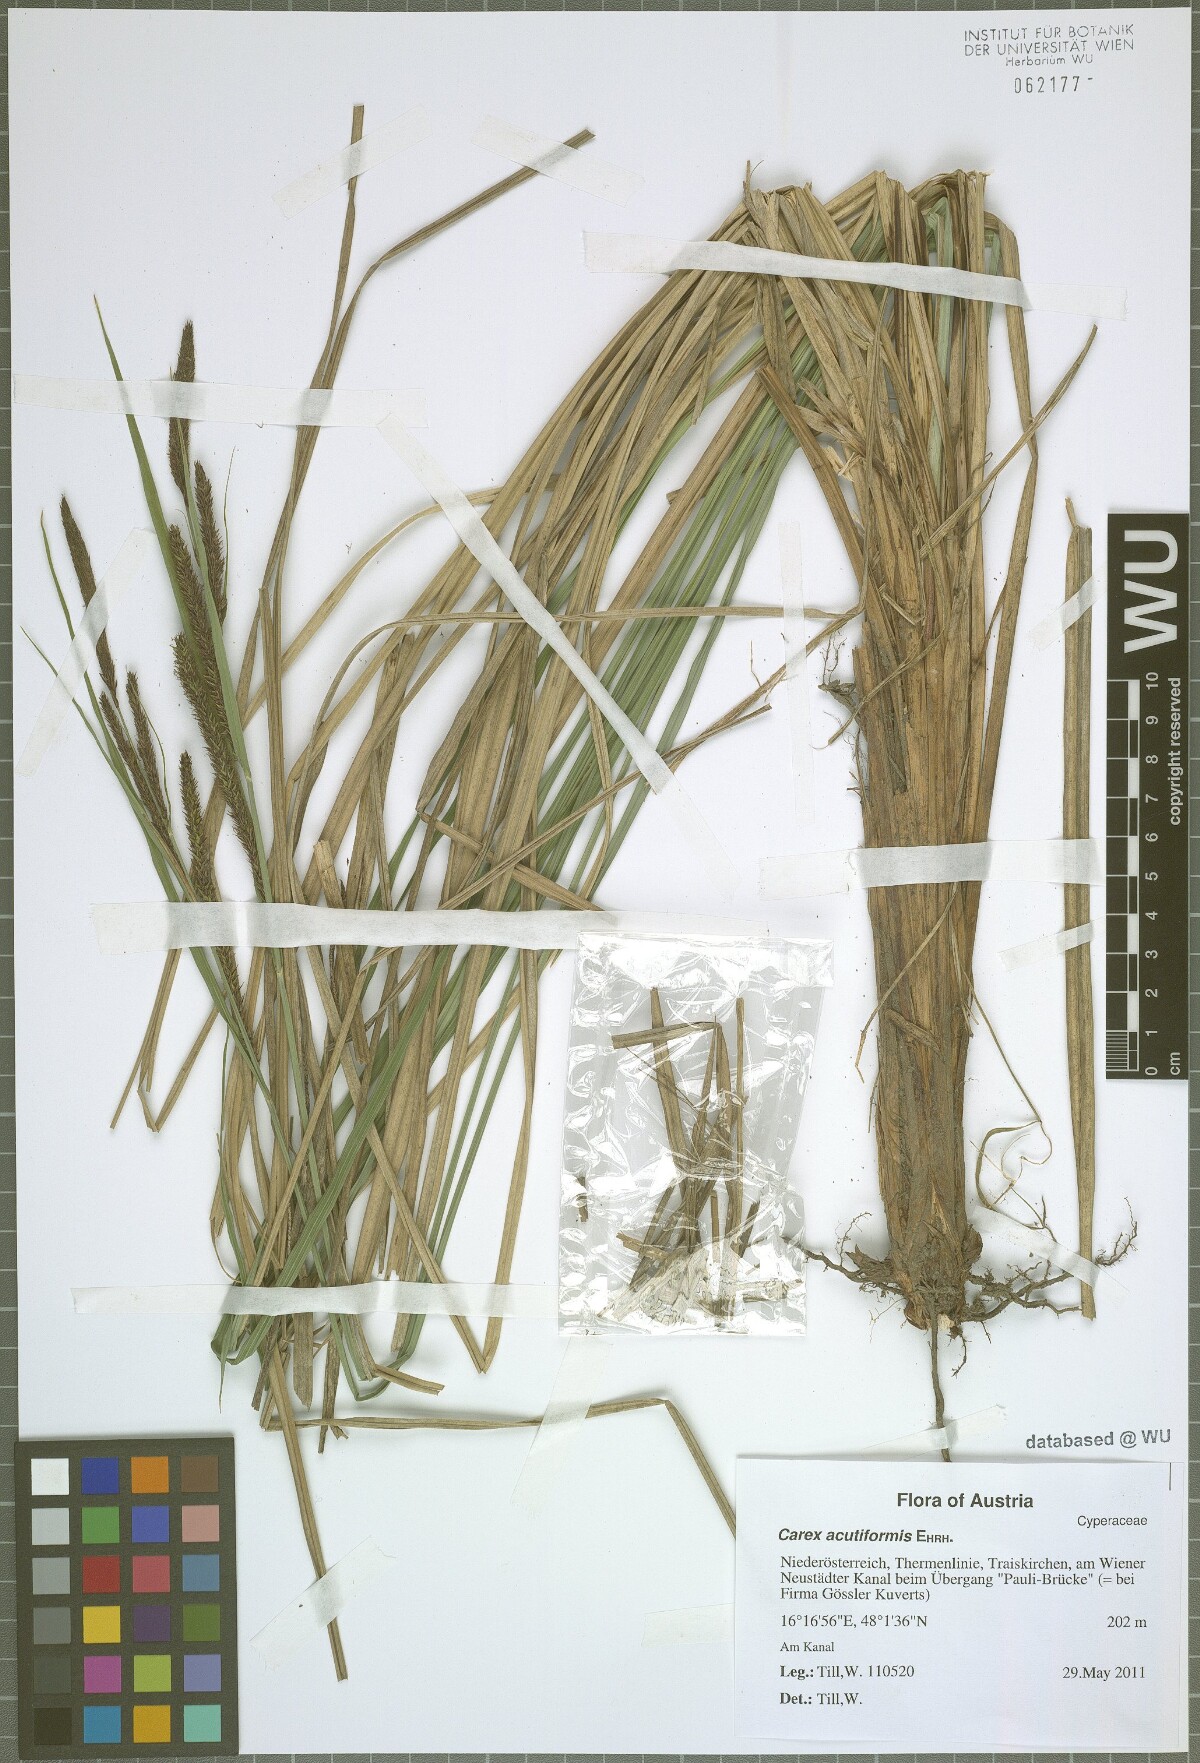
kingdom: Plantae
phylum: Tracheophyta
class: Liliopsida
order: Poales
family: Cyperaceae
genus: Carex
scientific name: Carex acutiformis
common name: Lesser pond-sedge
